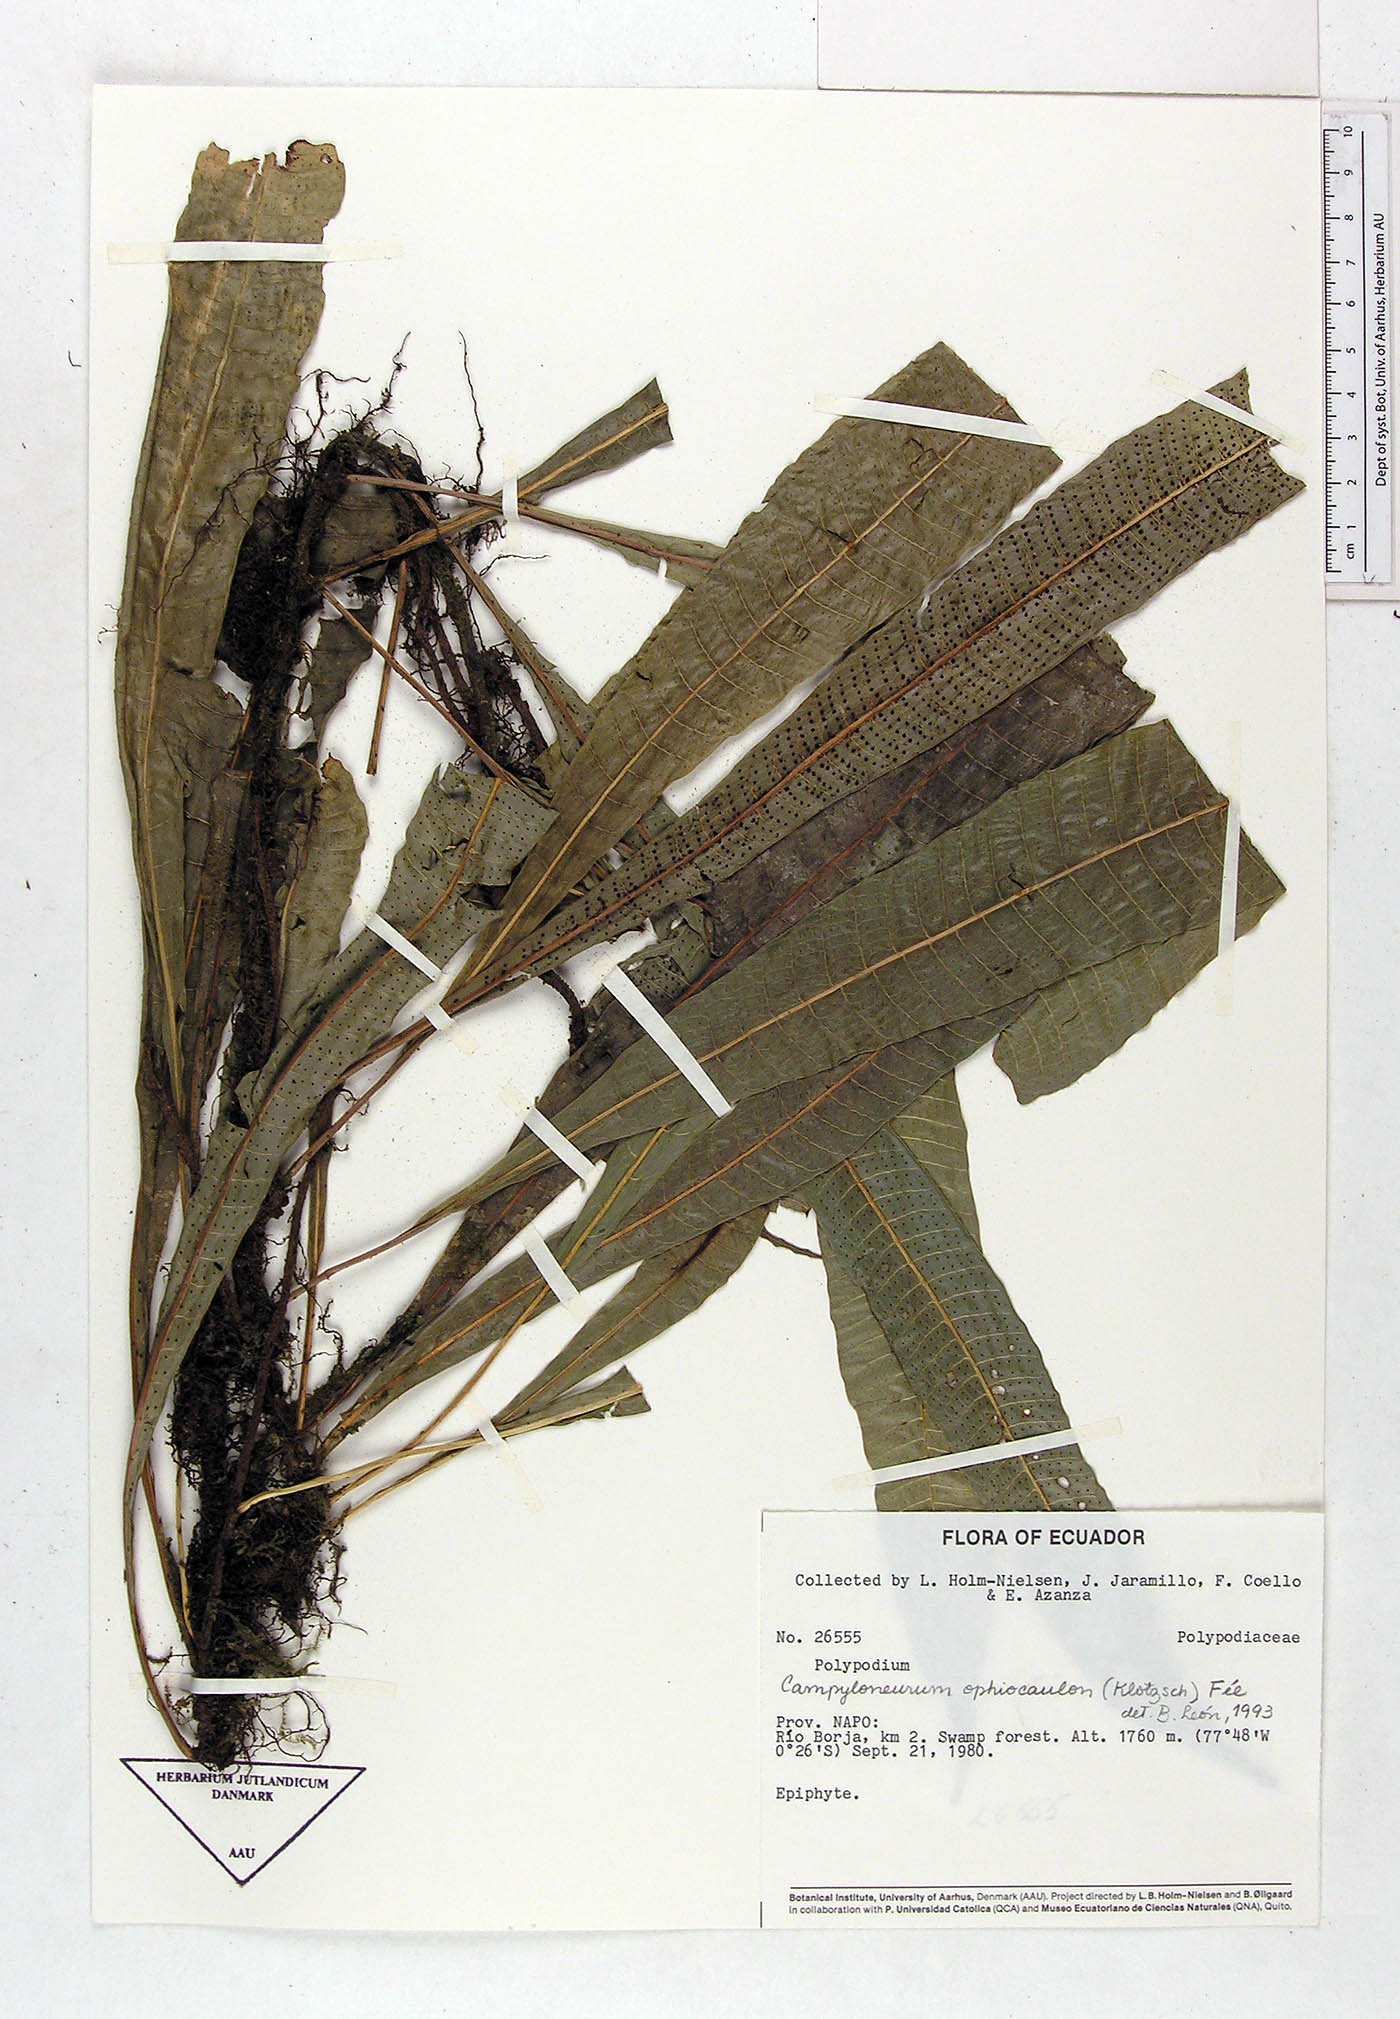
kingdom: Plantae
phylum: Tracheophyta
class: Polypodiopsida
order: Polypodiales
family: Polypodiaceae
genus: Campyloneurum
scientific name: Campyloneurum ophiocaulon
